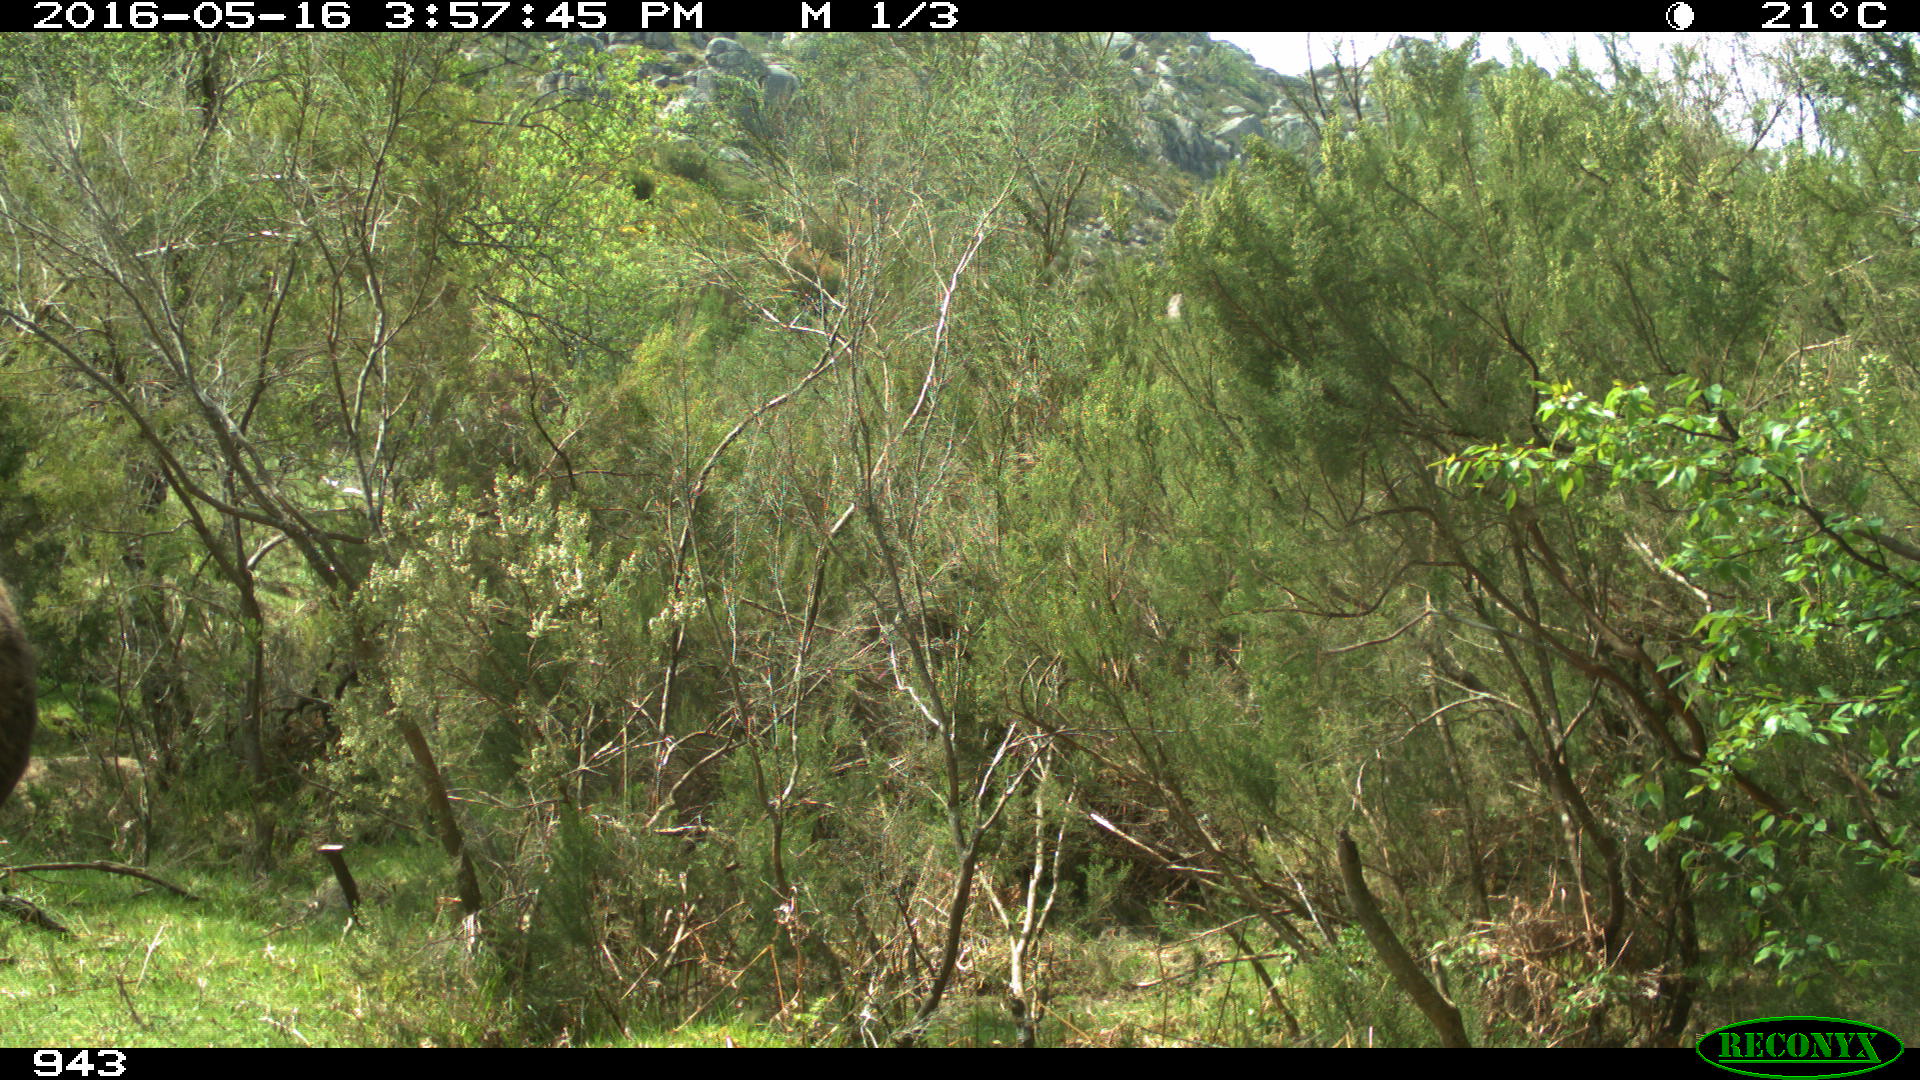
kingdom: Animalia
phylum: Chordata
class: Mammalia
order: Perissodactyla
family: Equidae
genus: Equus
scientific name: Equus caballus
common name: Horse
